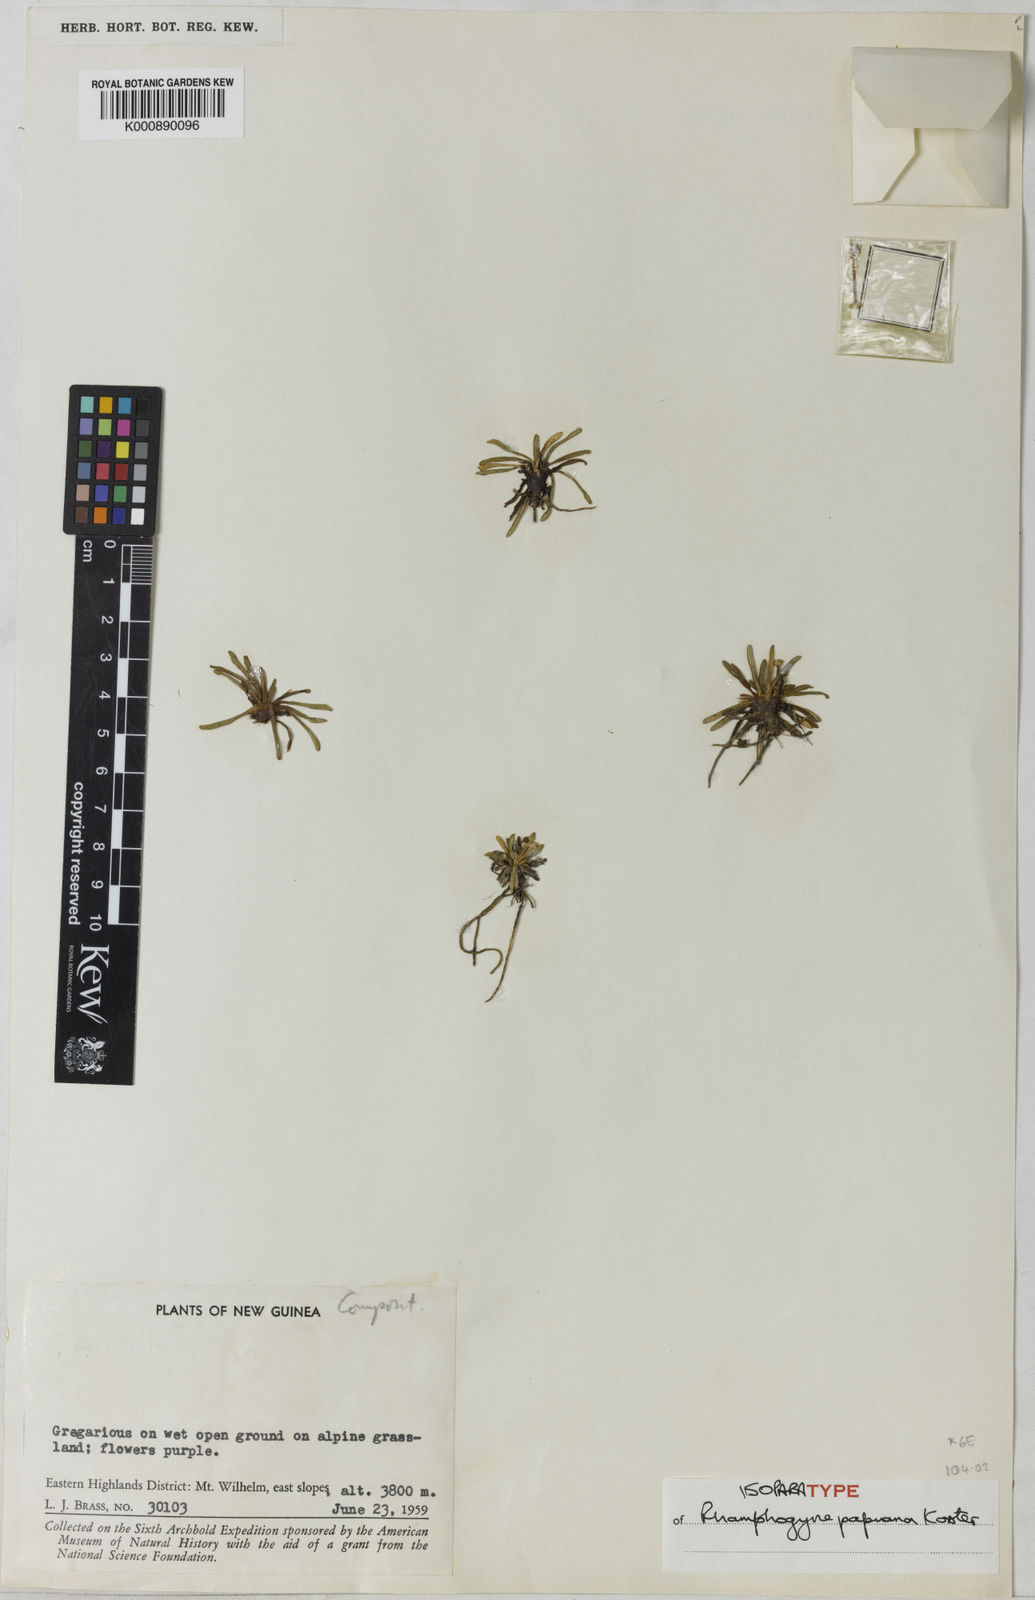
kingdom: Plantae
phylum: Tracheophyta
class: Magnoliopsida
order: Asterales
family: Asteraceae
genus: Lagenocypsela
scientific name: Lagenocypsela papuana
